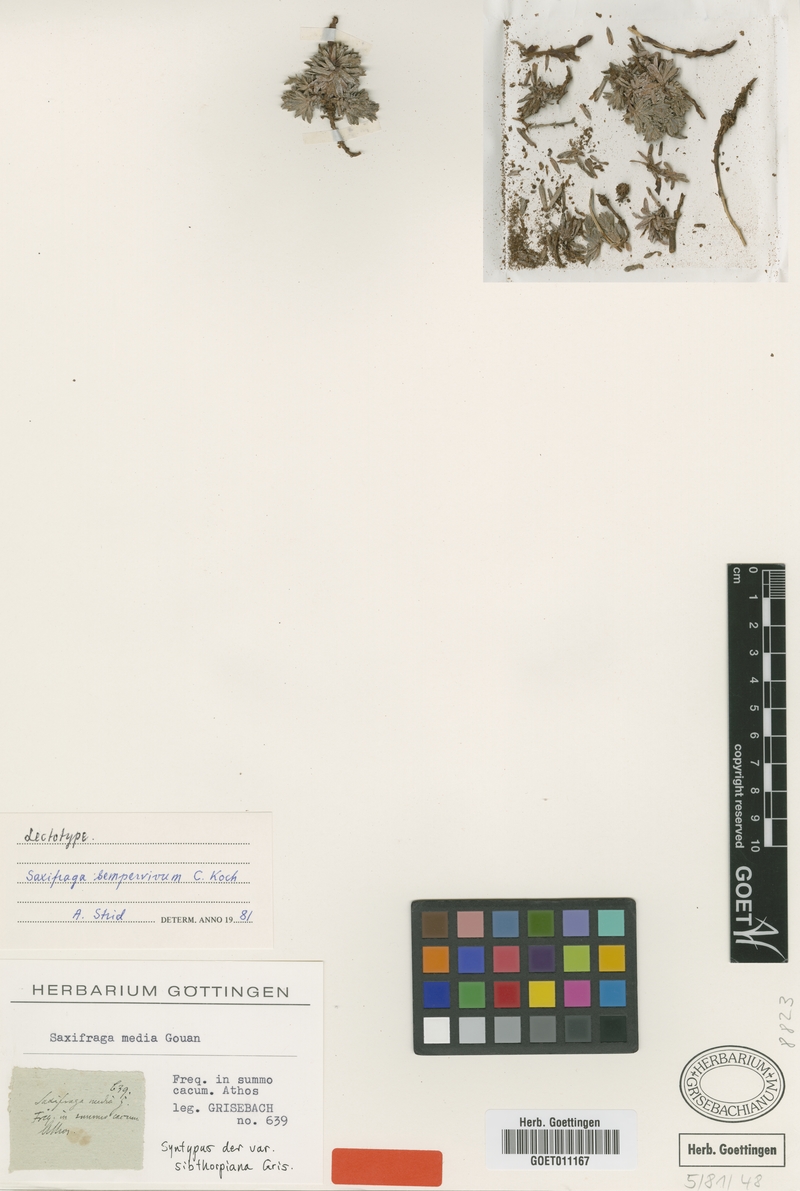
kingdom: Plantae
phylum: Tracheophyta
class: Magnoliopsida
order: Saxifragales
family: Saxifragaceae
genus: Saxifraga
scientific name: Saxifraga sempervivum
